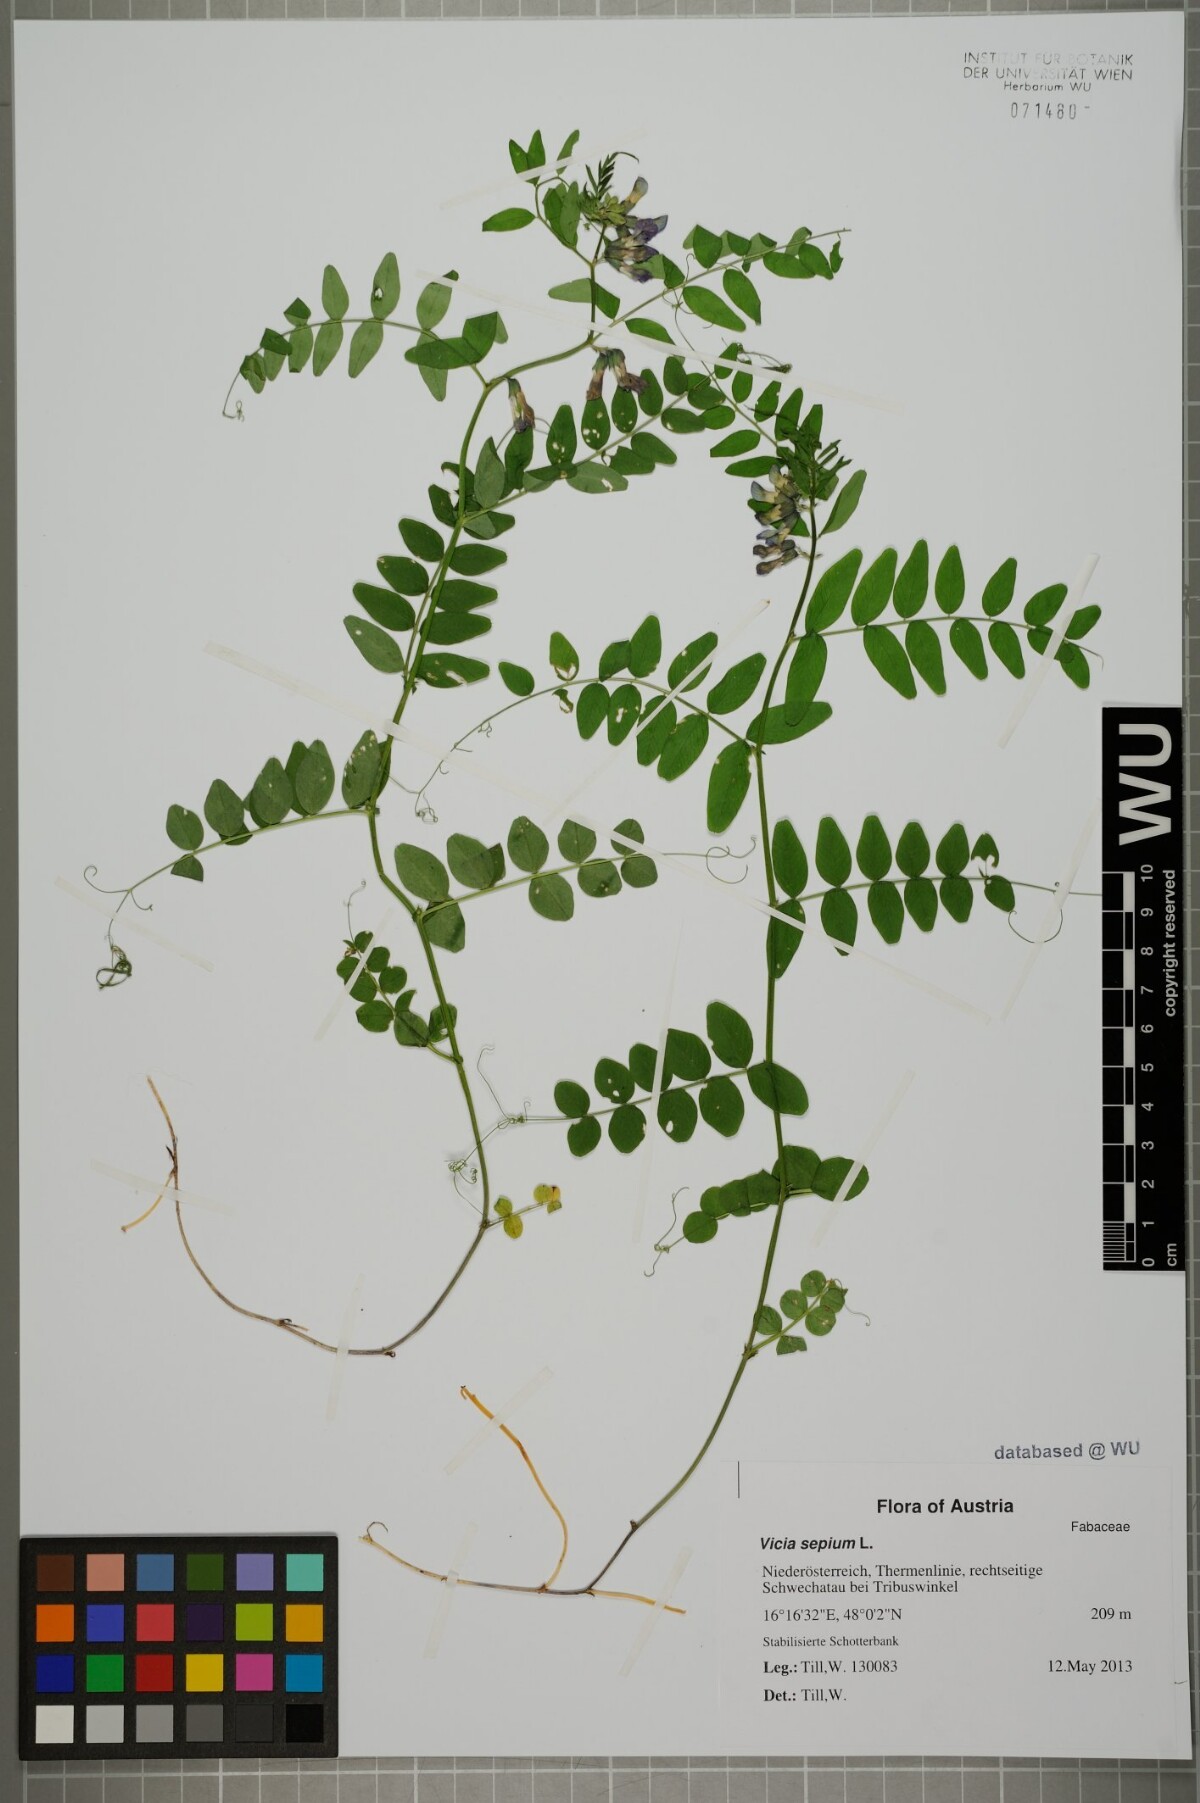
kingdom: Plantae
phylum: Tracheophyta
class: Magnoliopsida
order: Fabales
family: Fabaceae
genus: Vicia
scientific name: Vicia sepium
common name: Bush vetch
